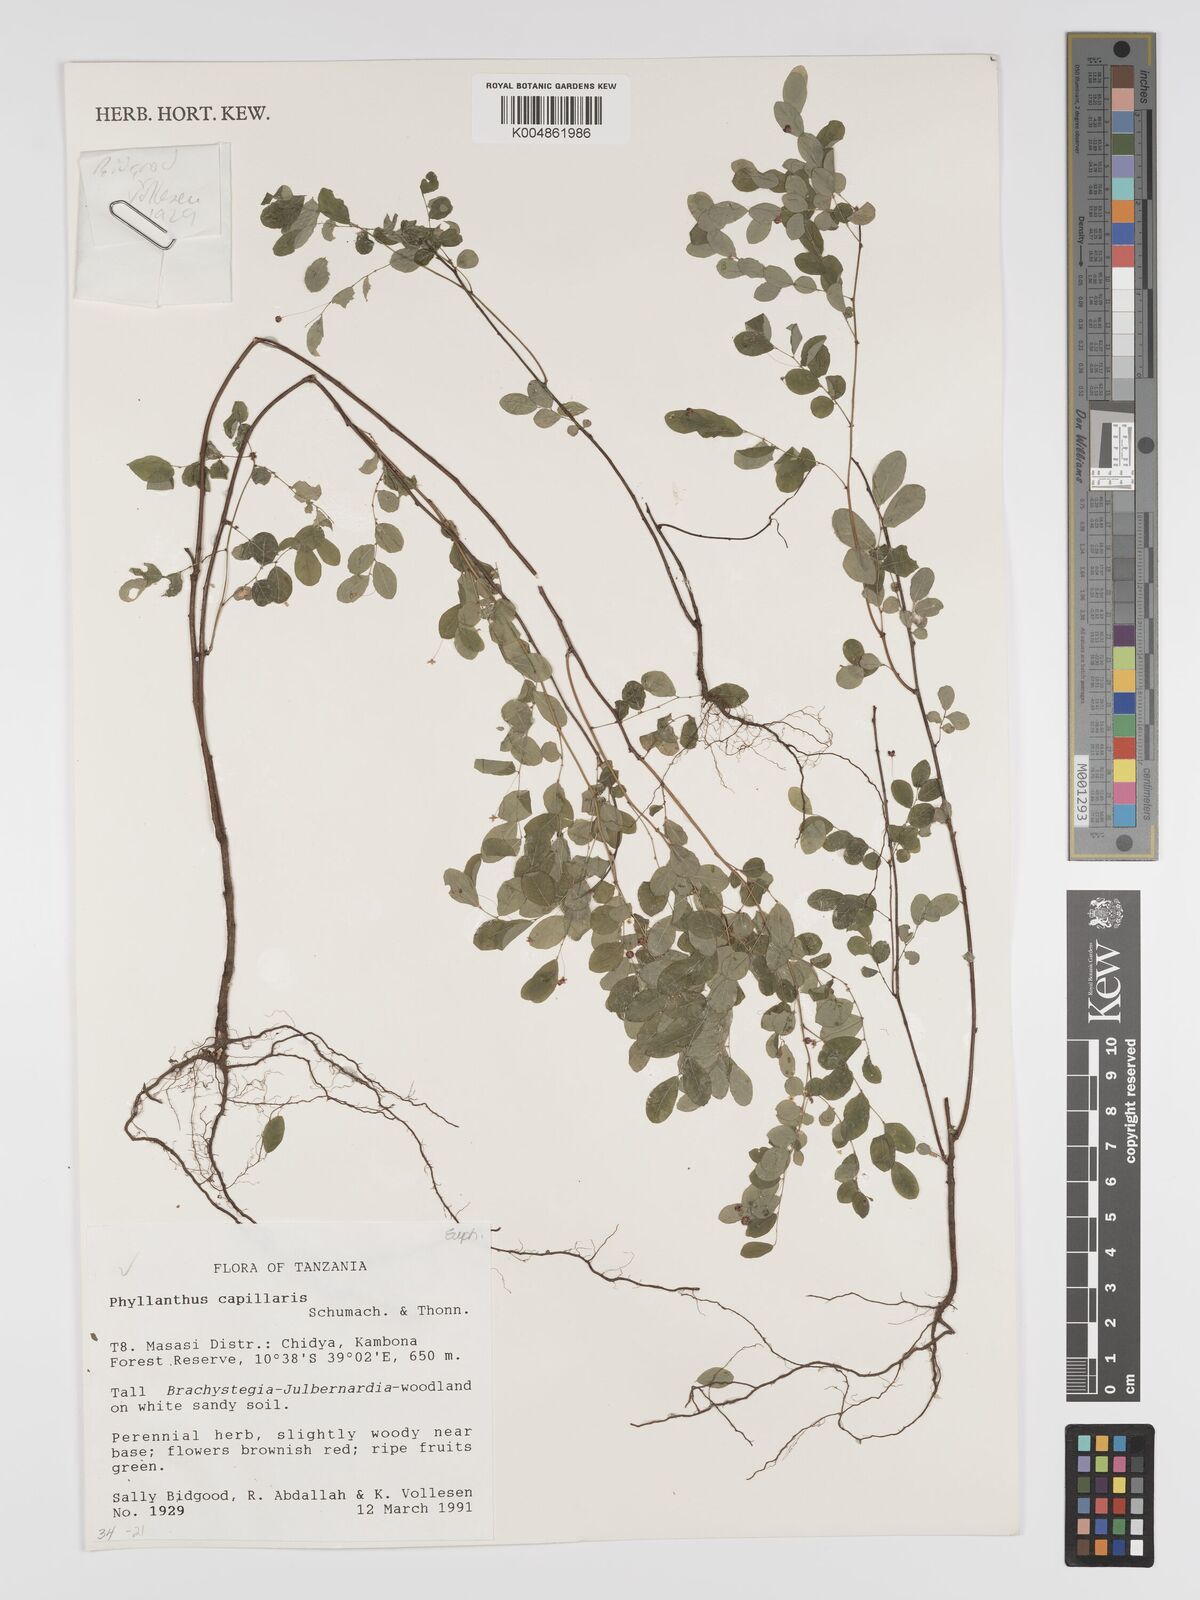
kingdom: Plantae
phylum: Tracheophyta
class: Magnoliopsida
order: Malpighiales
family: Phyllanthaceae
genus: Phyllanthus
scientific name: Phyllanthus nummulariifolius
